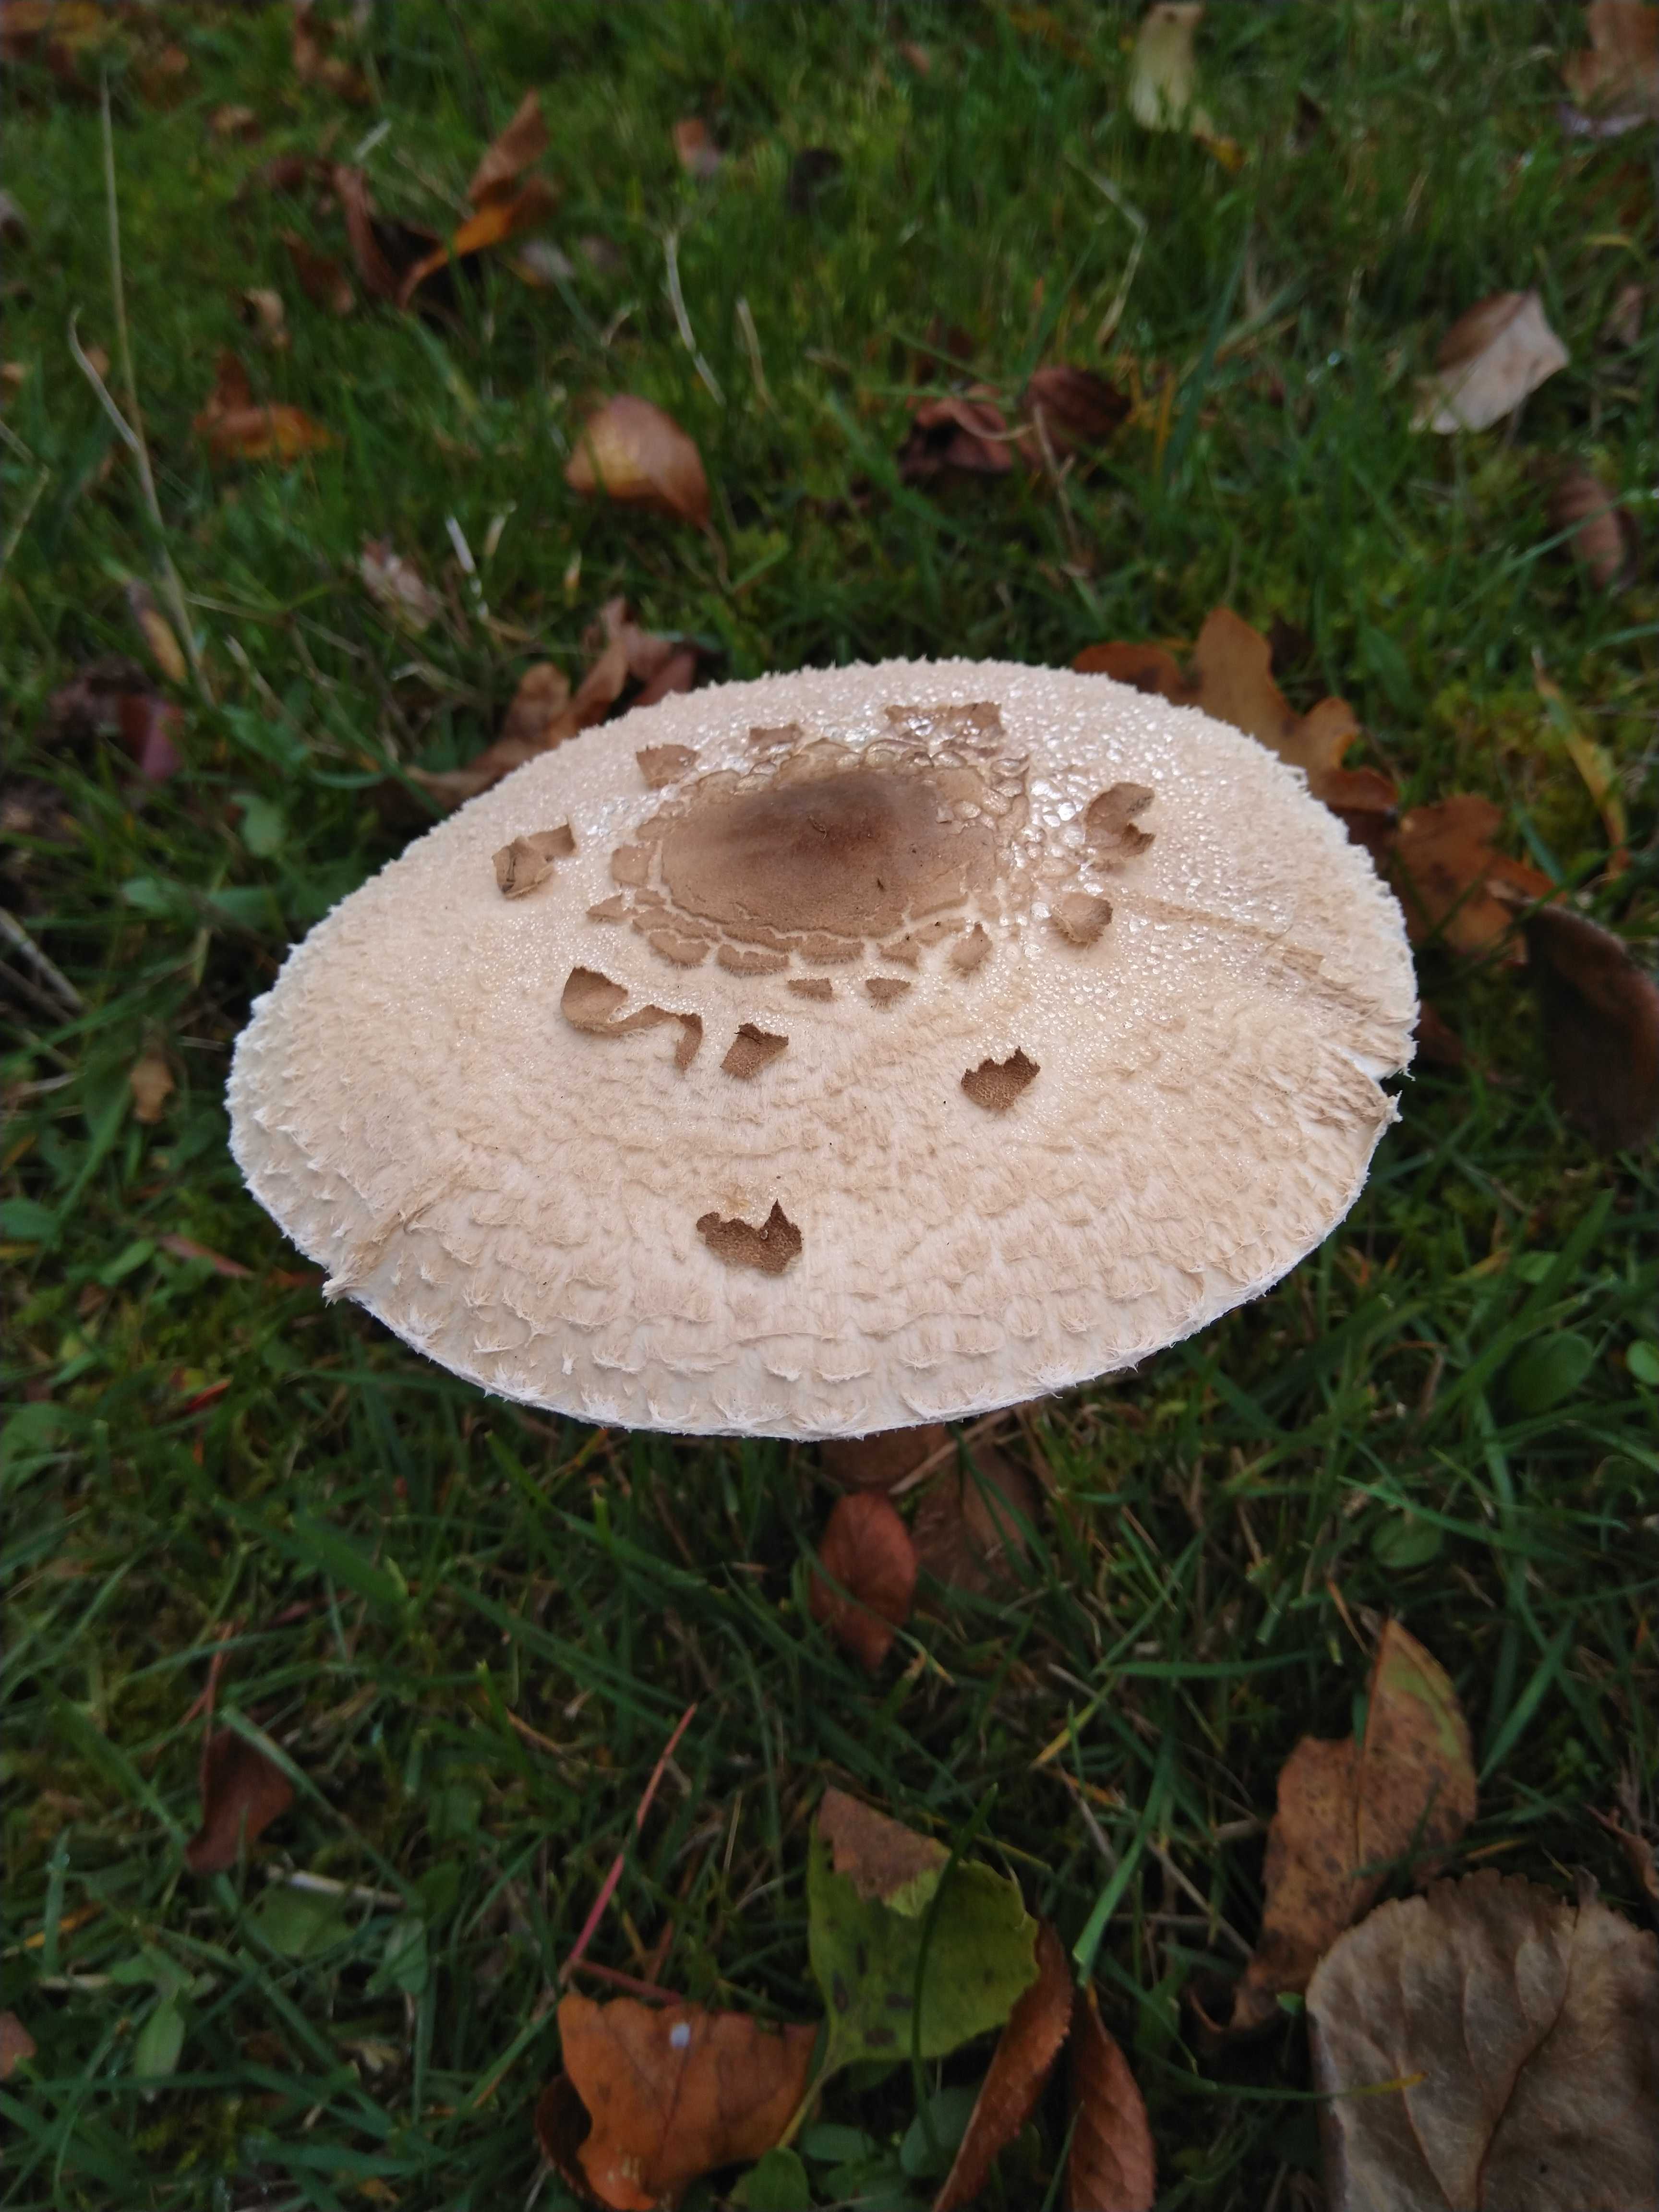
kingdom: Fungi
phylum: Basidiomycota
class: Agaricomycetes
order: Agaricales
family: Agaricaceae
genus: Macrolepiota
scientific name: Macrolepiota procera
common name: stor kæmpeparasolhat
